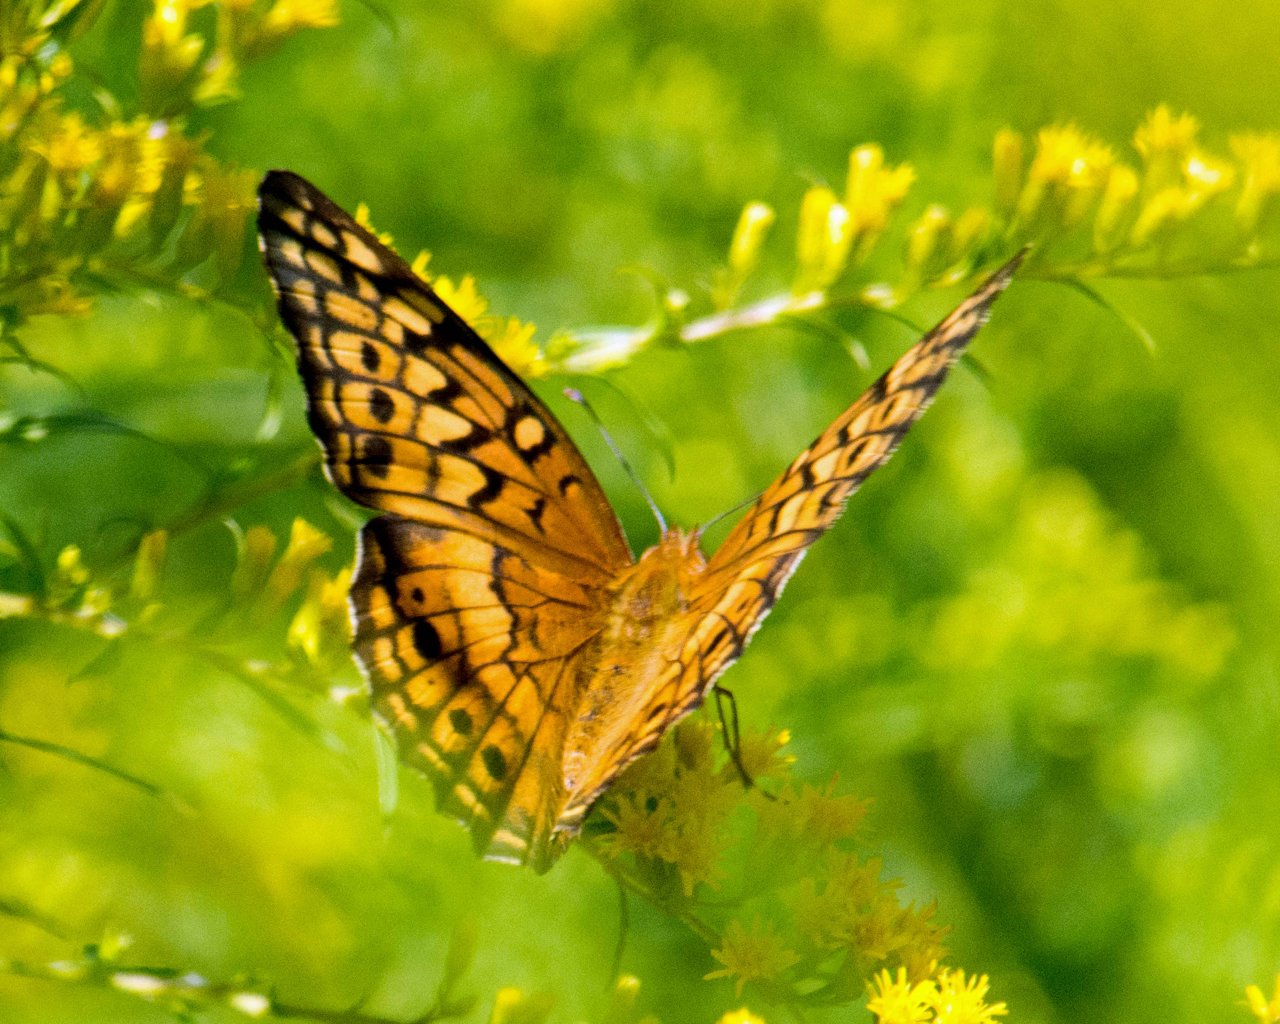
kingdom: Animalia
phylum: Arthropoda
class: Insecta
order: Lepidoptera
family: Nymphalidae
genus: Euptoieta
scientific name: Euptoieta claudia
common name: Variegated Fritillary
